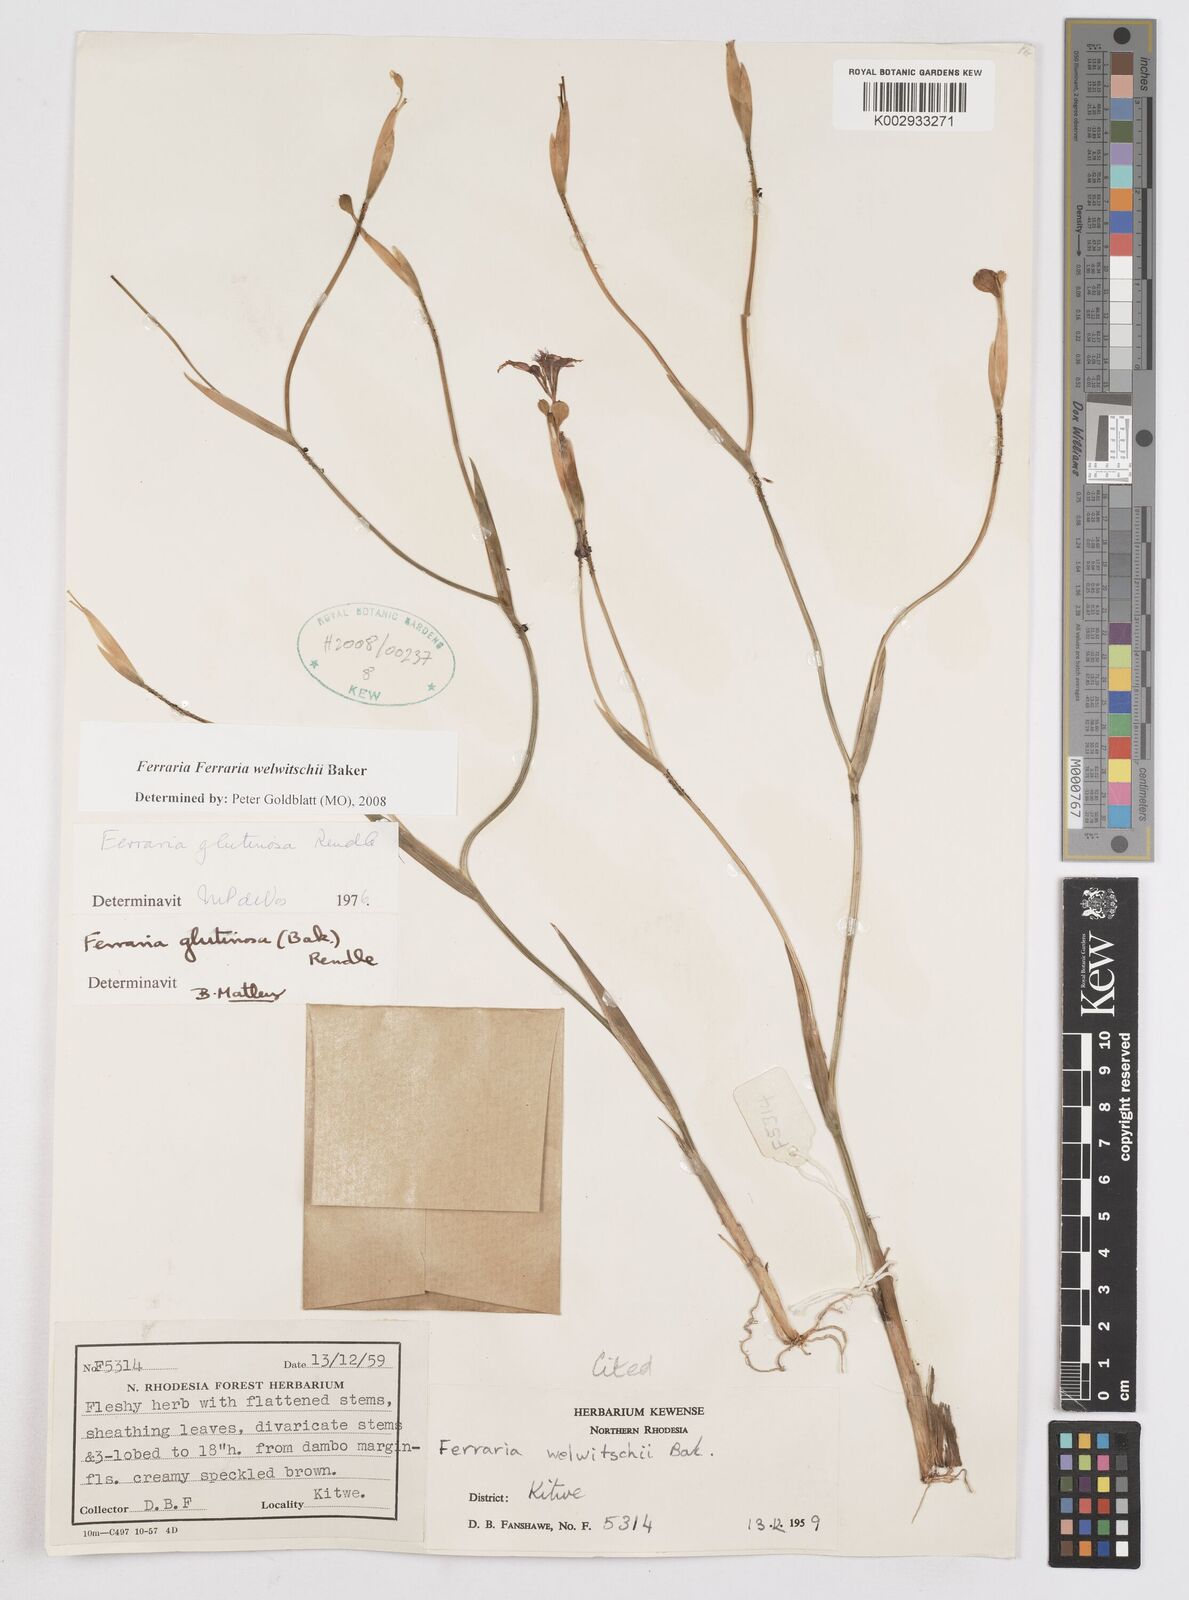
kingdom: Plantae
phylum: Tracheophyta
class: Liliopsida
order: Asparagales
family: Iridaceae
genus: Ferraria
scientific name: Ferraria welwitschii
